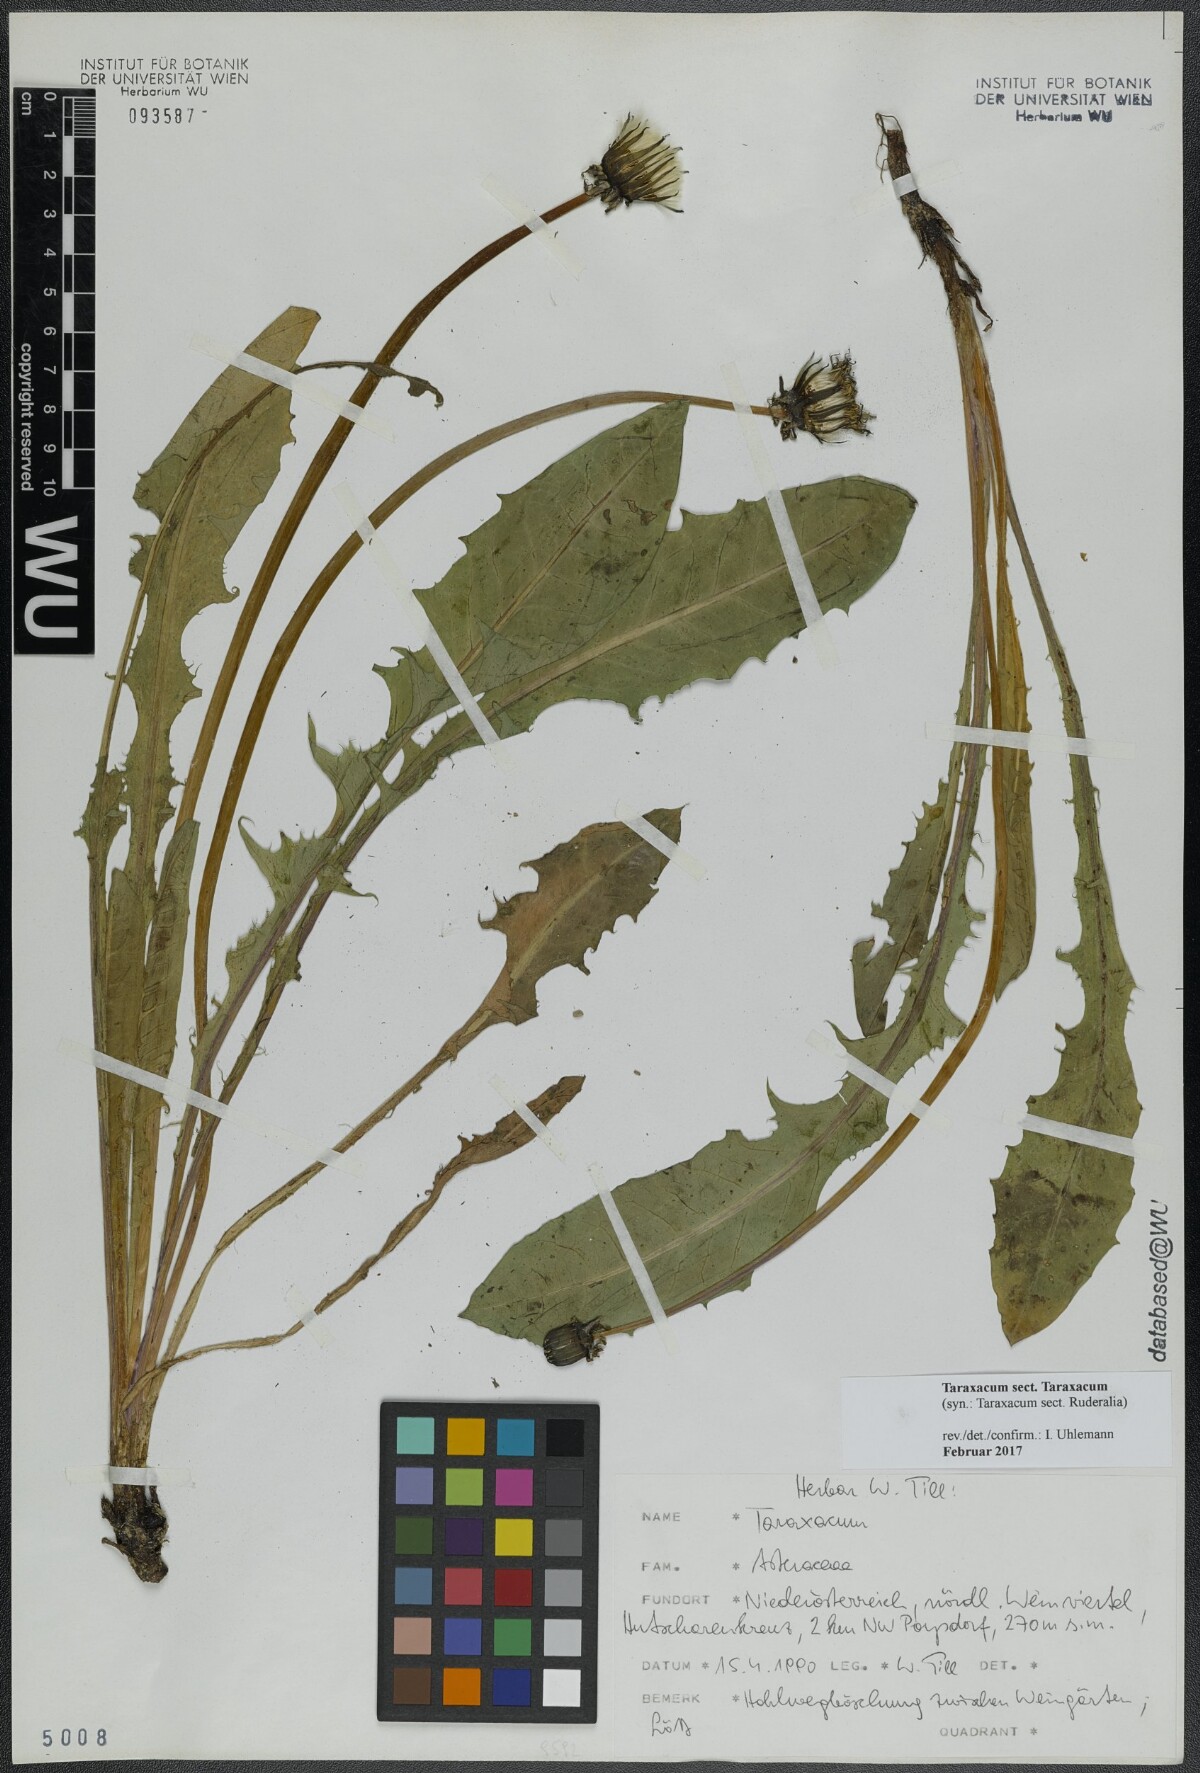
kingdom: Plantae
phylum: Tracheophyta
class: Magnoliopsida
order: Asterales
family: Asteraceae
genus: Taraxacum
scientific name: Taraxacum
